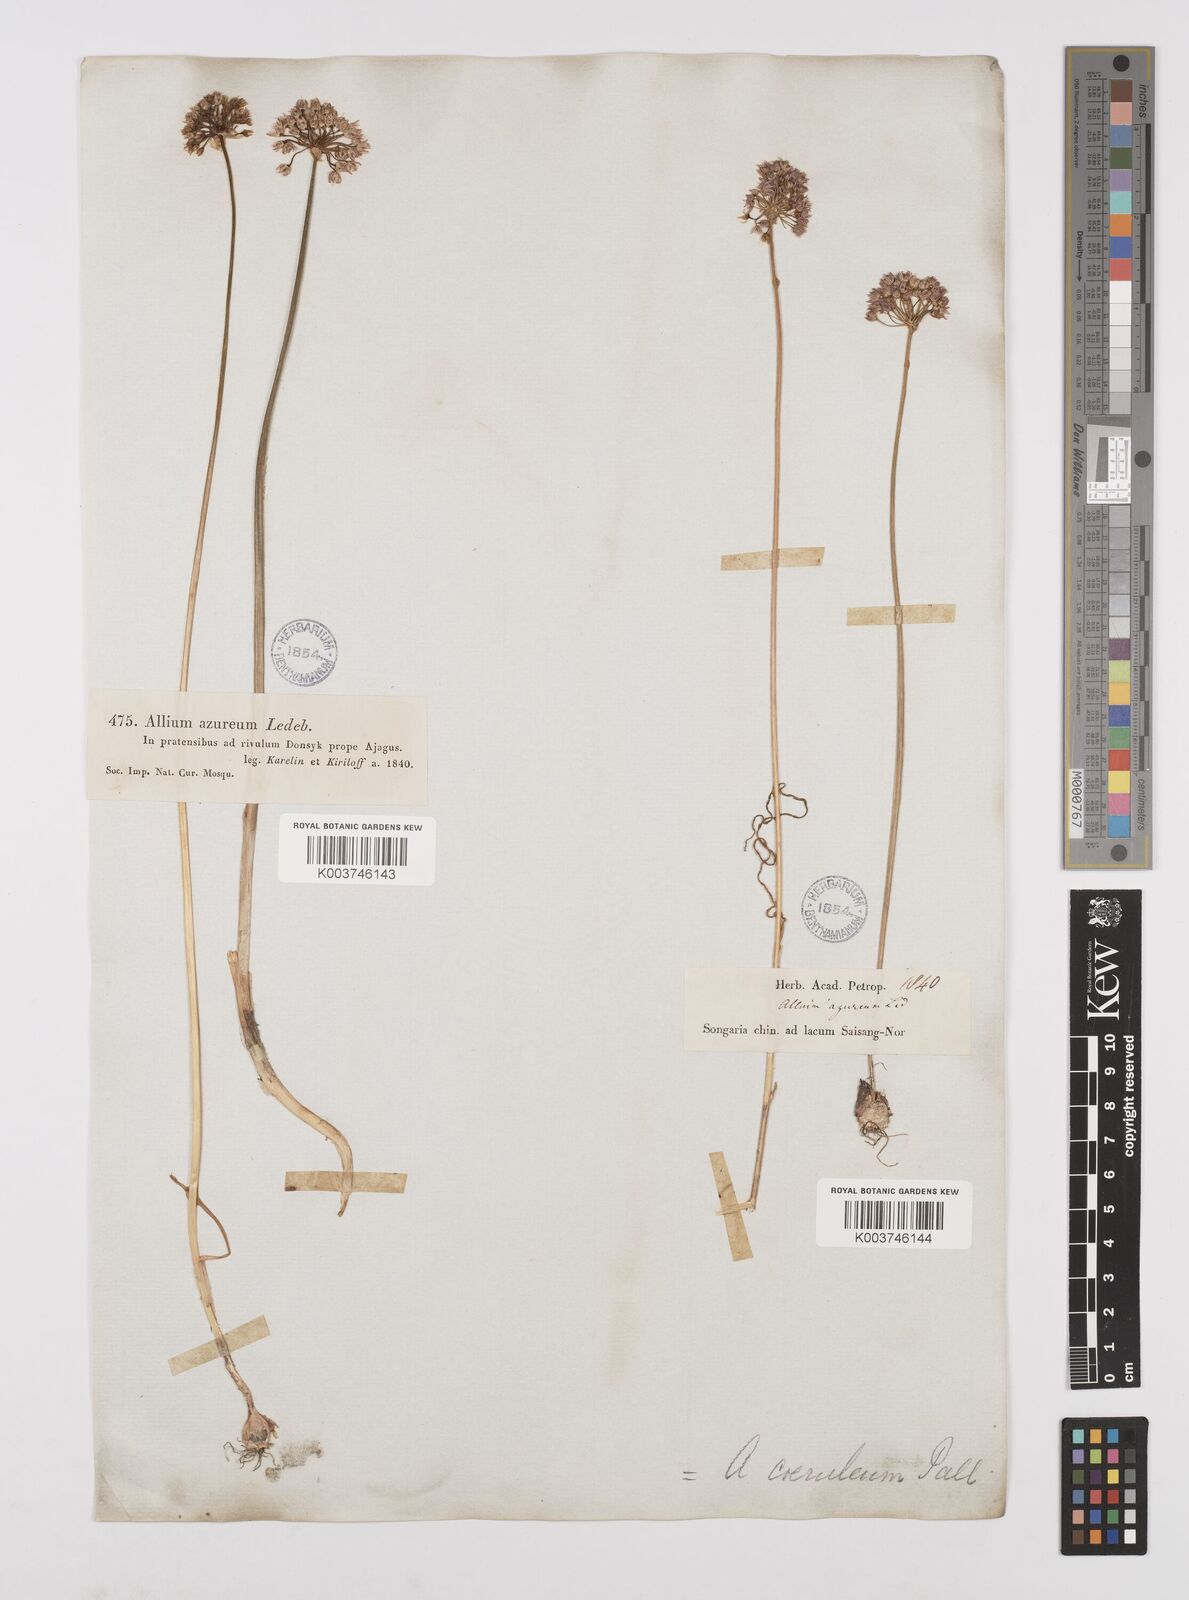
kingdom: Plantae
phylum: Tracheophyta
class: Liliopsida
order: Asparagales
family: Amaryllidaceae
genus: Allium
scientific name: Allium caeruleum
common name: Blue-of-the-heavens
